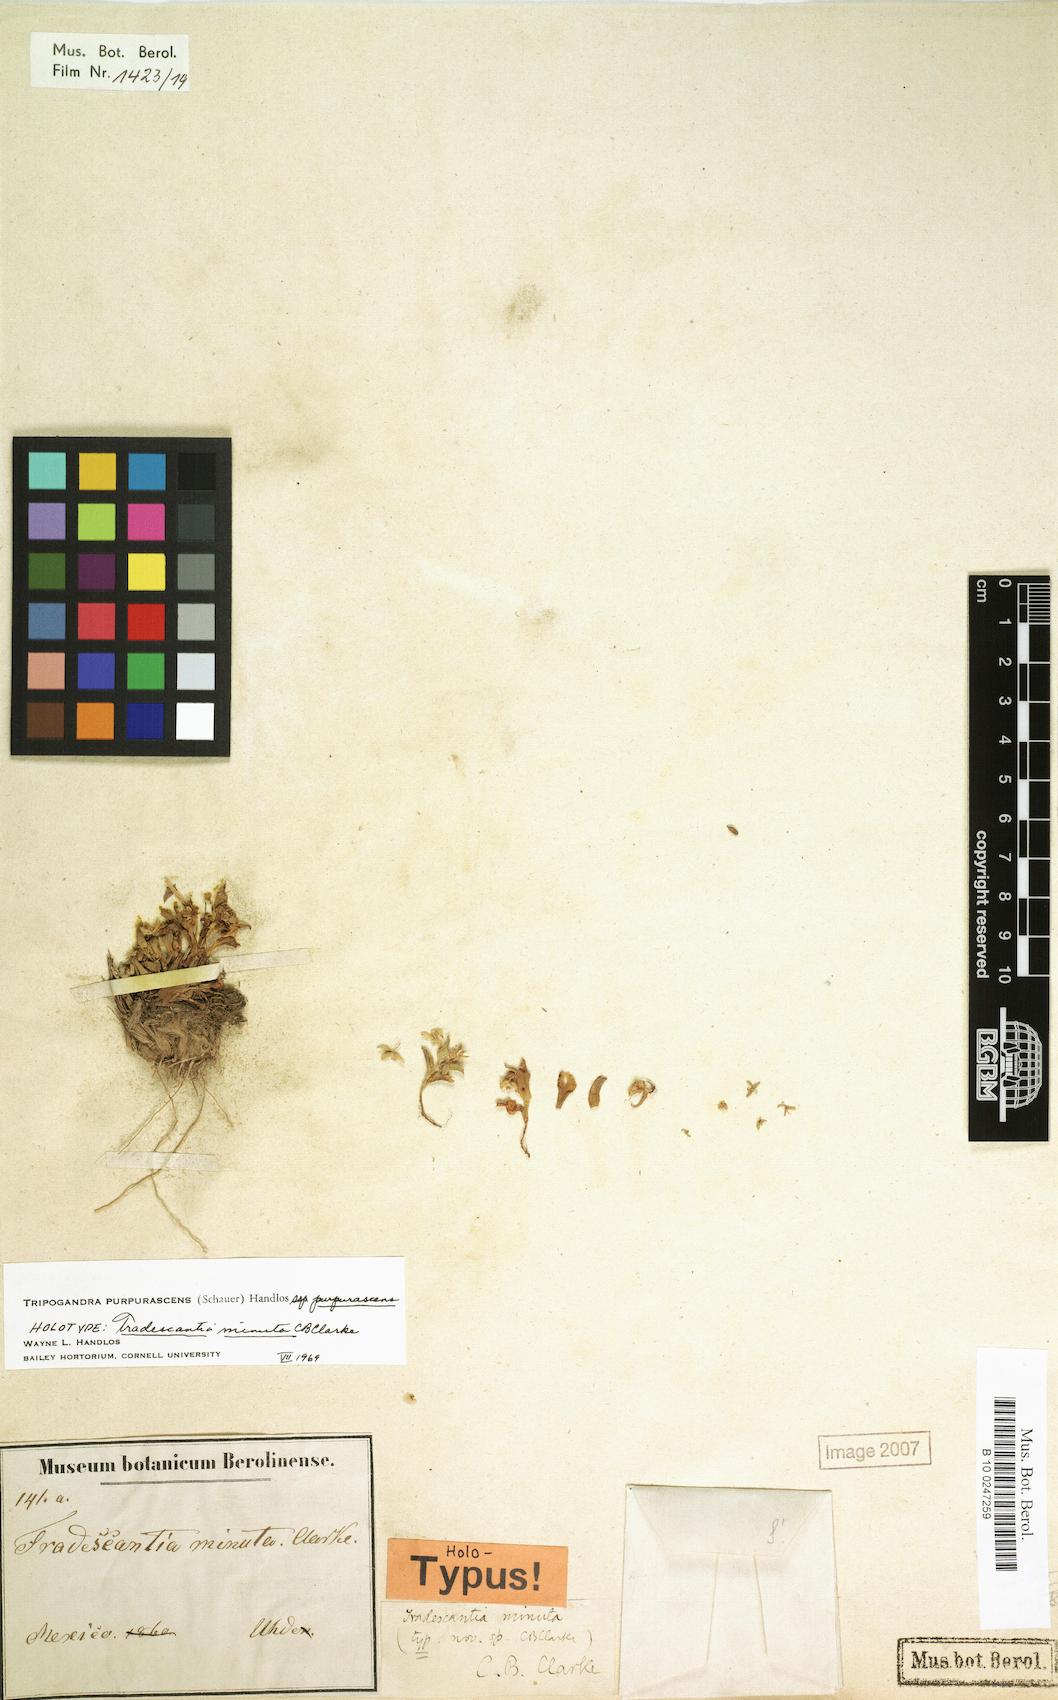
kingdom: Plantae
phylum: Tracheophyta
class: Liliopsida
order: Commelinales
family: Commelinaceae
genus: Callisia
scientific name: Callisia purpurascens
